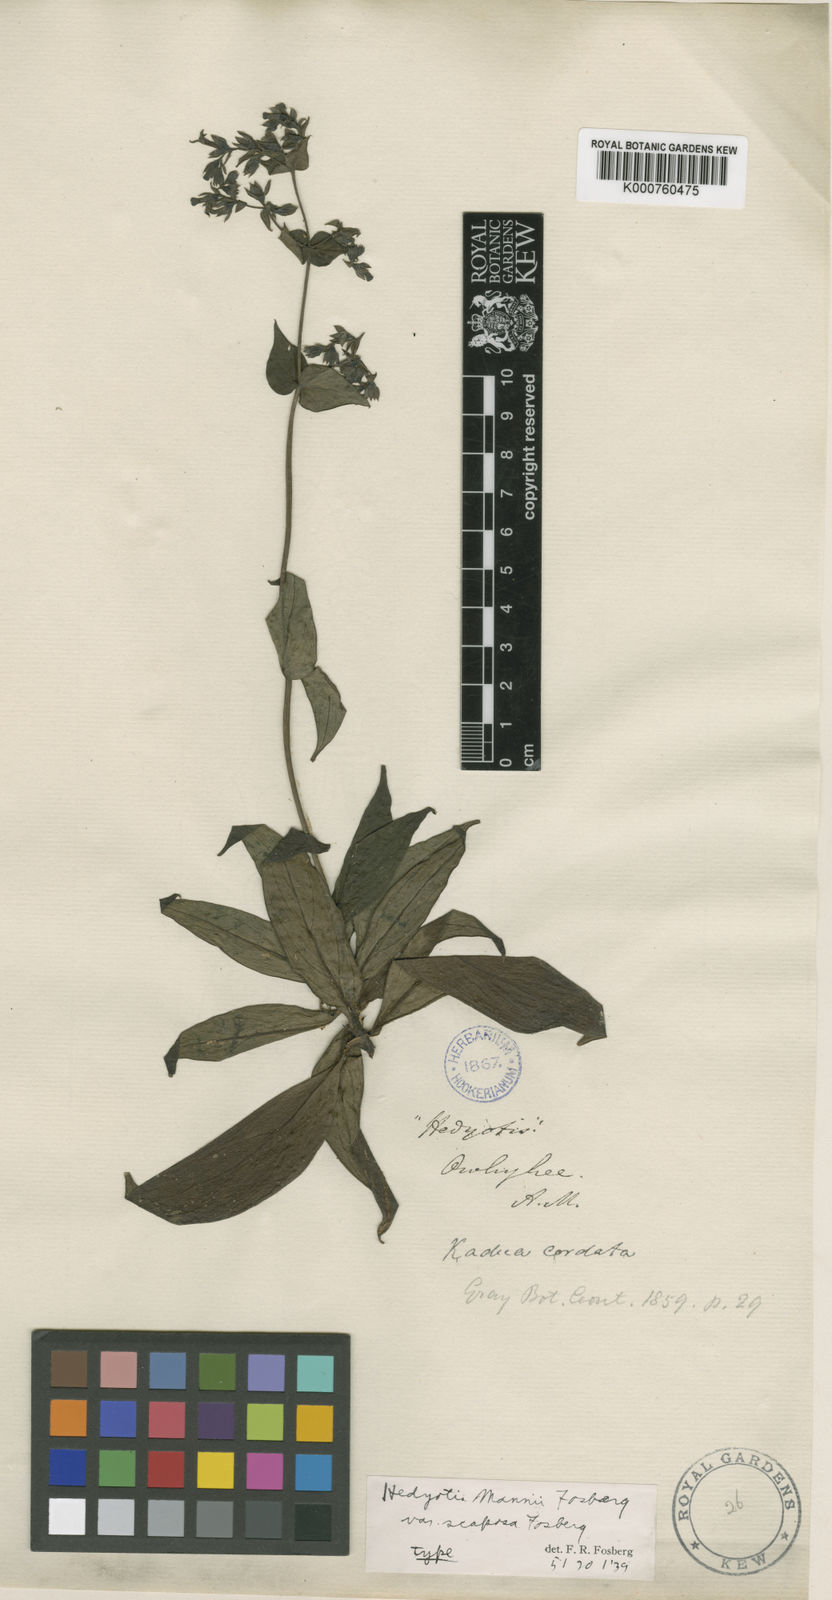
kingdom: Plantae
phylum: Tracheophyta
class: Magnoliopsida
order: Gentianales
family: Rubiaceae
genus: Kadua
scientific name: Kadua laxiflora
